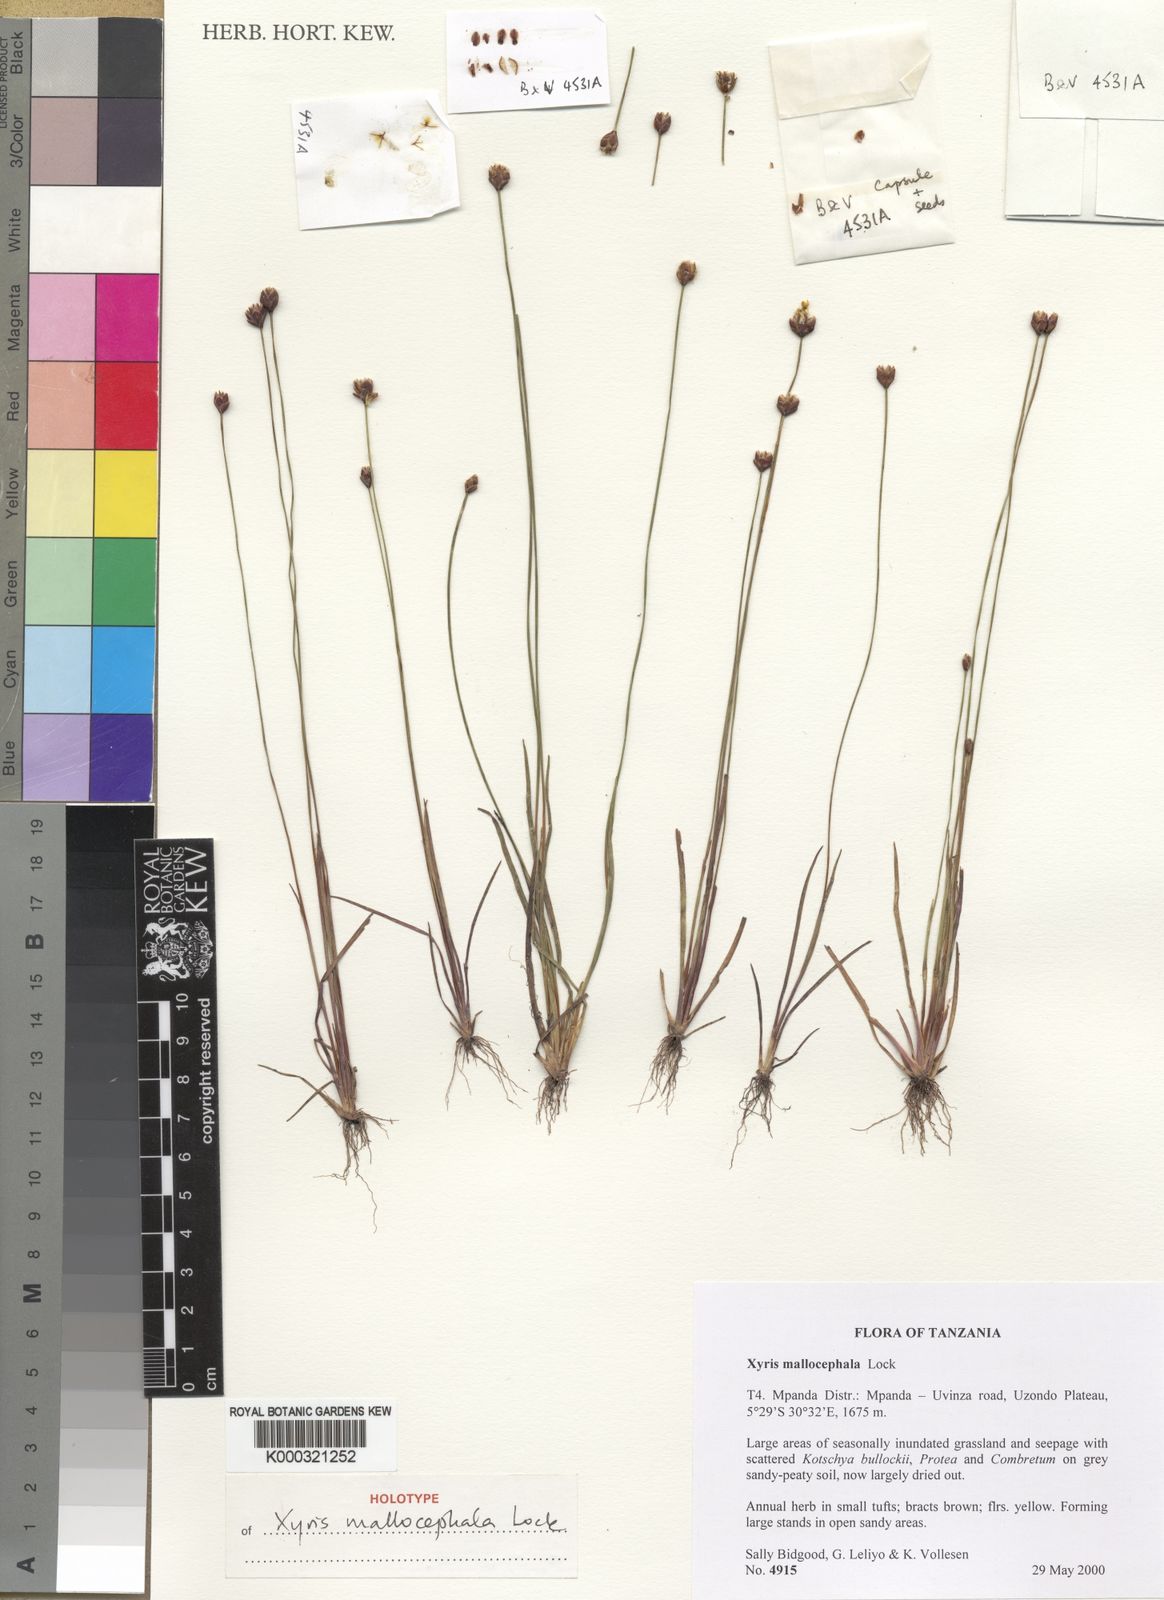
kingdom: Plantae
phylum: Tracheophyta
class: Liliopsida
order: Poales
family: Xyridaceae
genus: Xyris
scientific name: Xyris mallocephala
